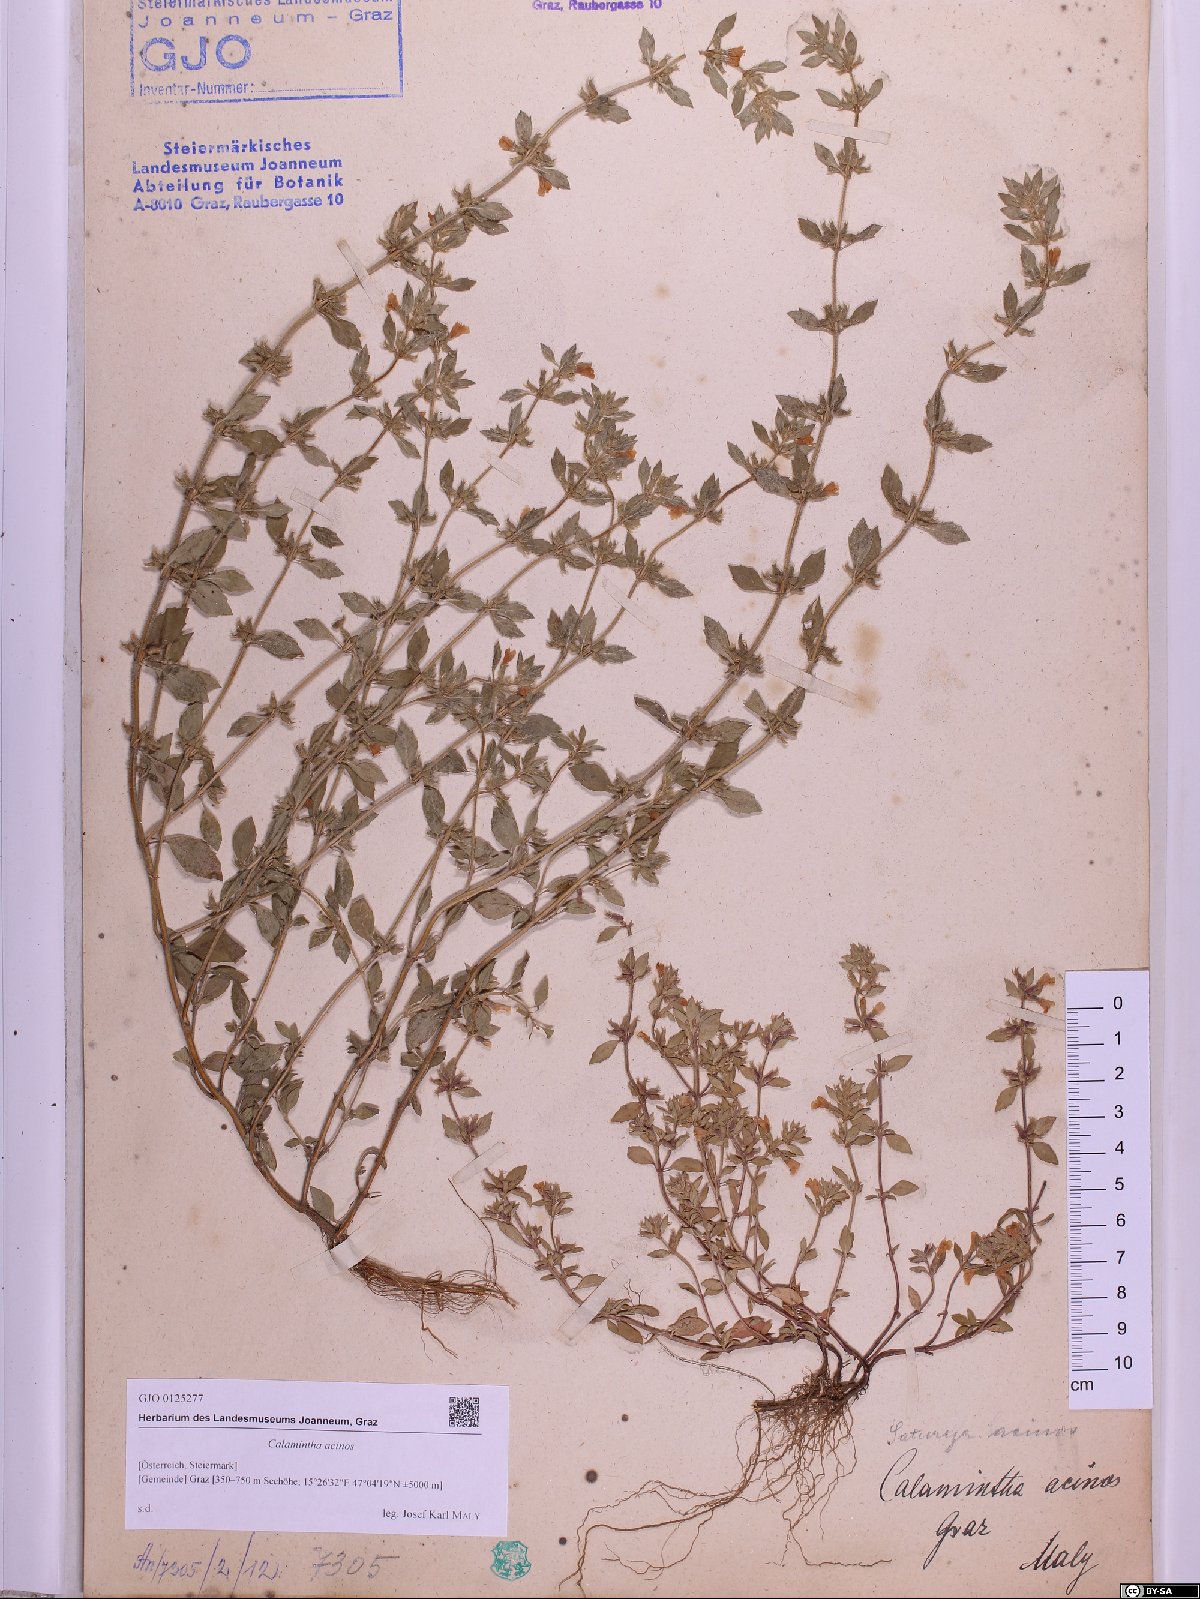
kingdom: Plantae
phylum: Tracheophyta
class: Magnoliopsida
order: Lamiales
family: Lamiaceae
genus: Clinopodium
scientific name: Clinopodium acinos
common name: Basil thyme
